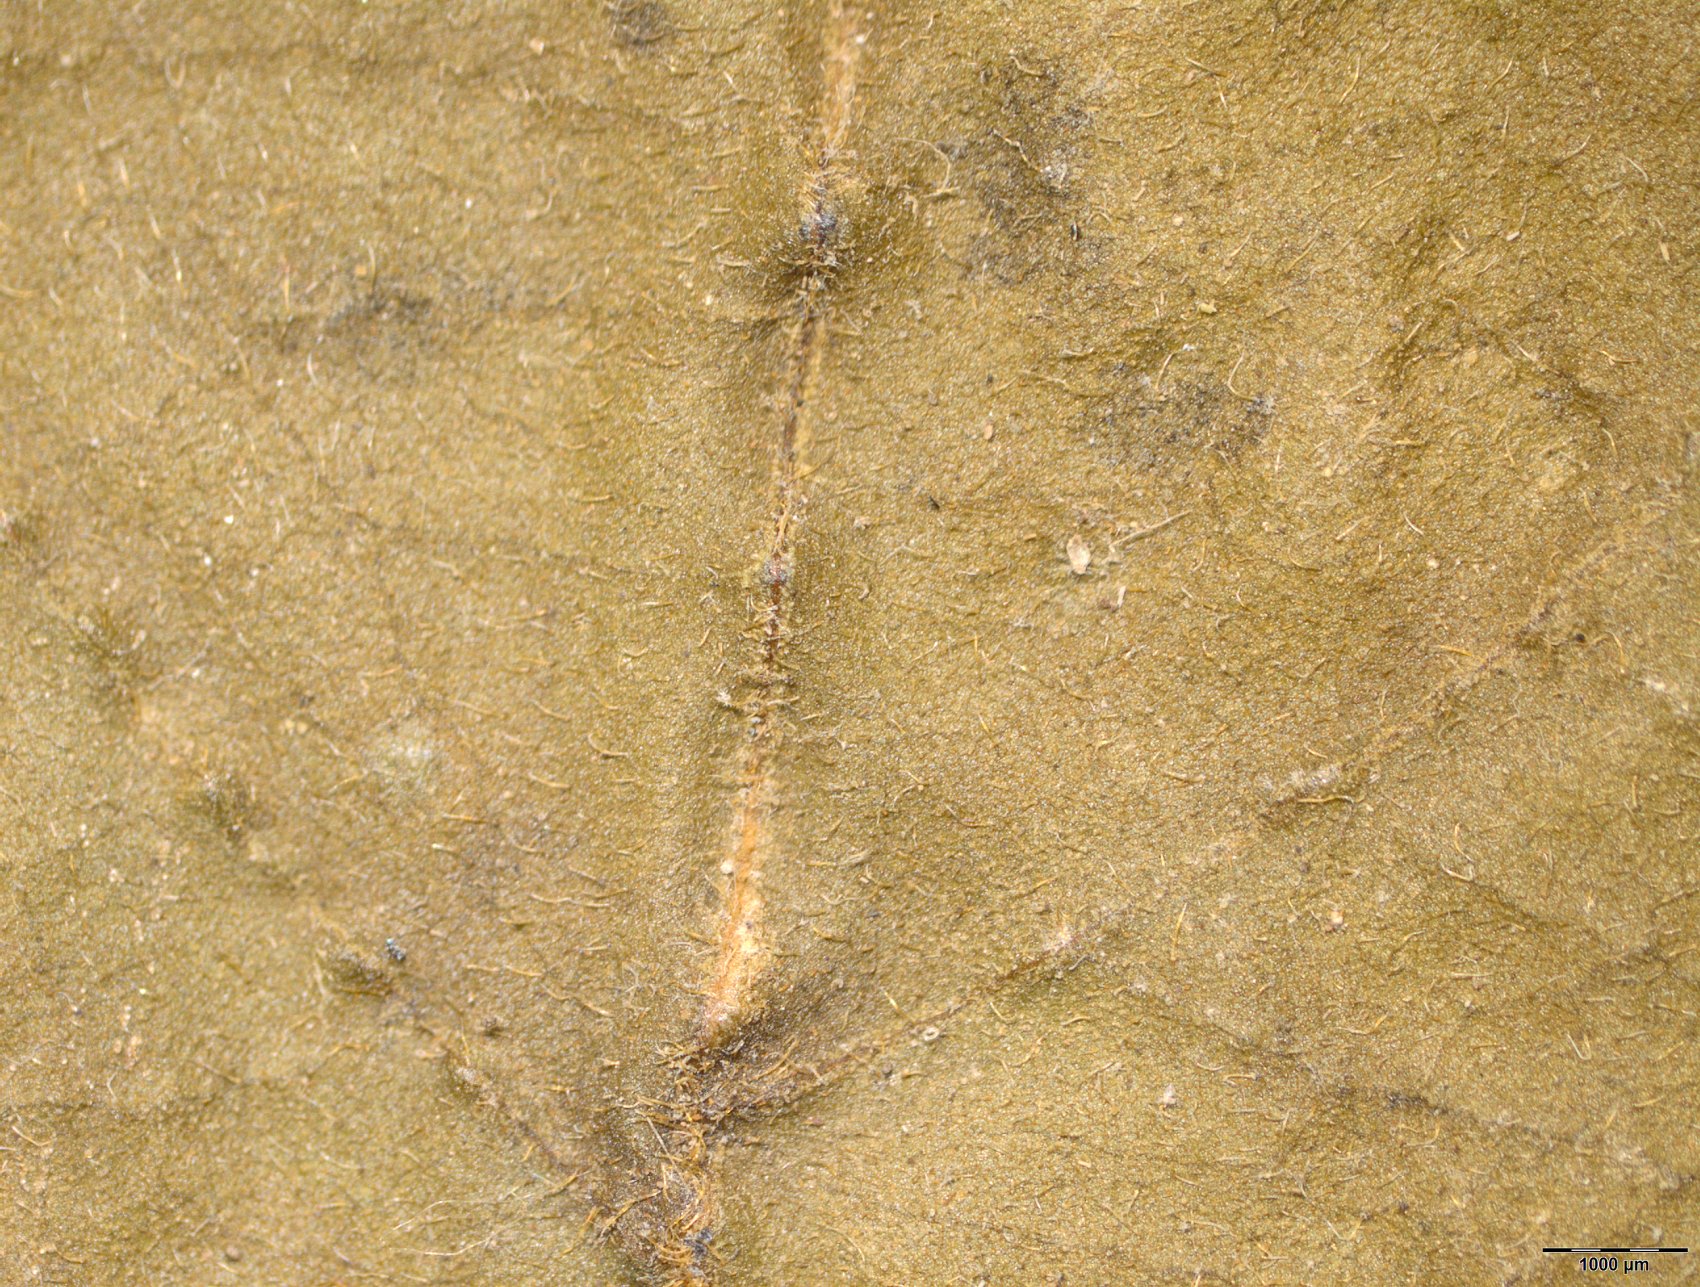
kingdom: Plantae
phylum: Tracheophyta
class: Magnoliopsida
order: Rosales
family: Rhamnaceae
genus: Ziziphus
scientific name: Ziziphus pubescens
